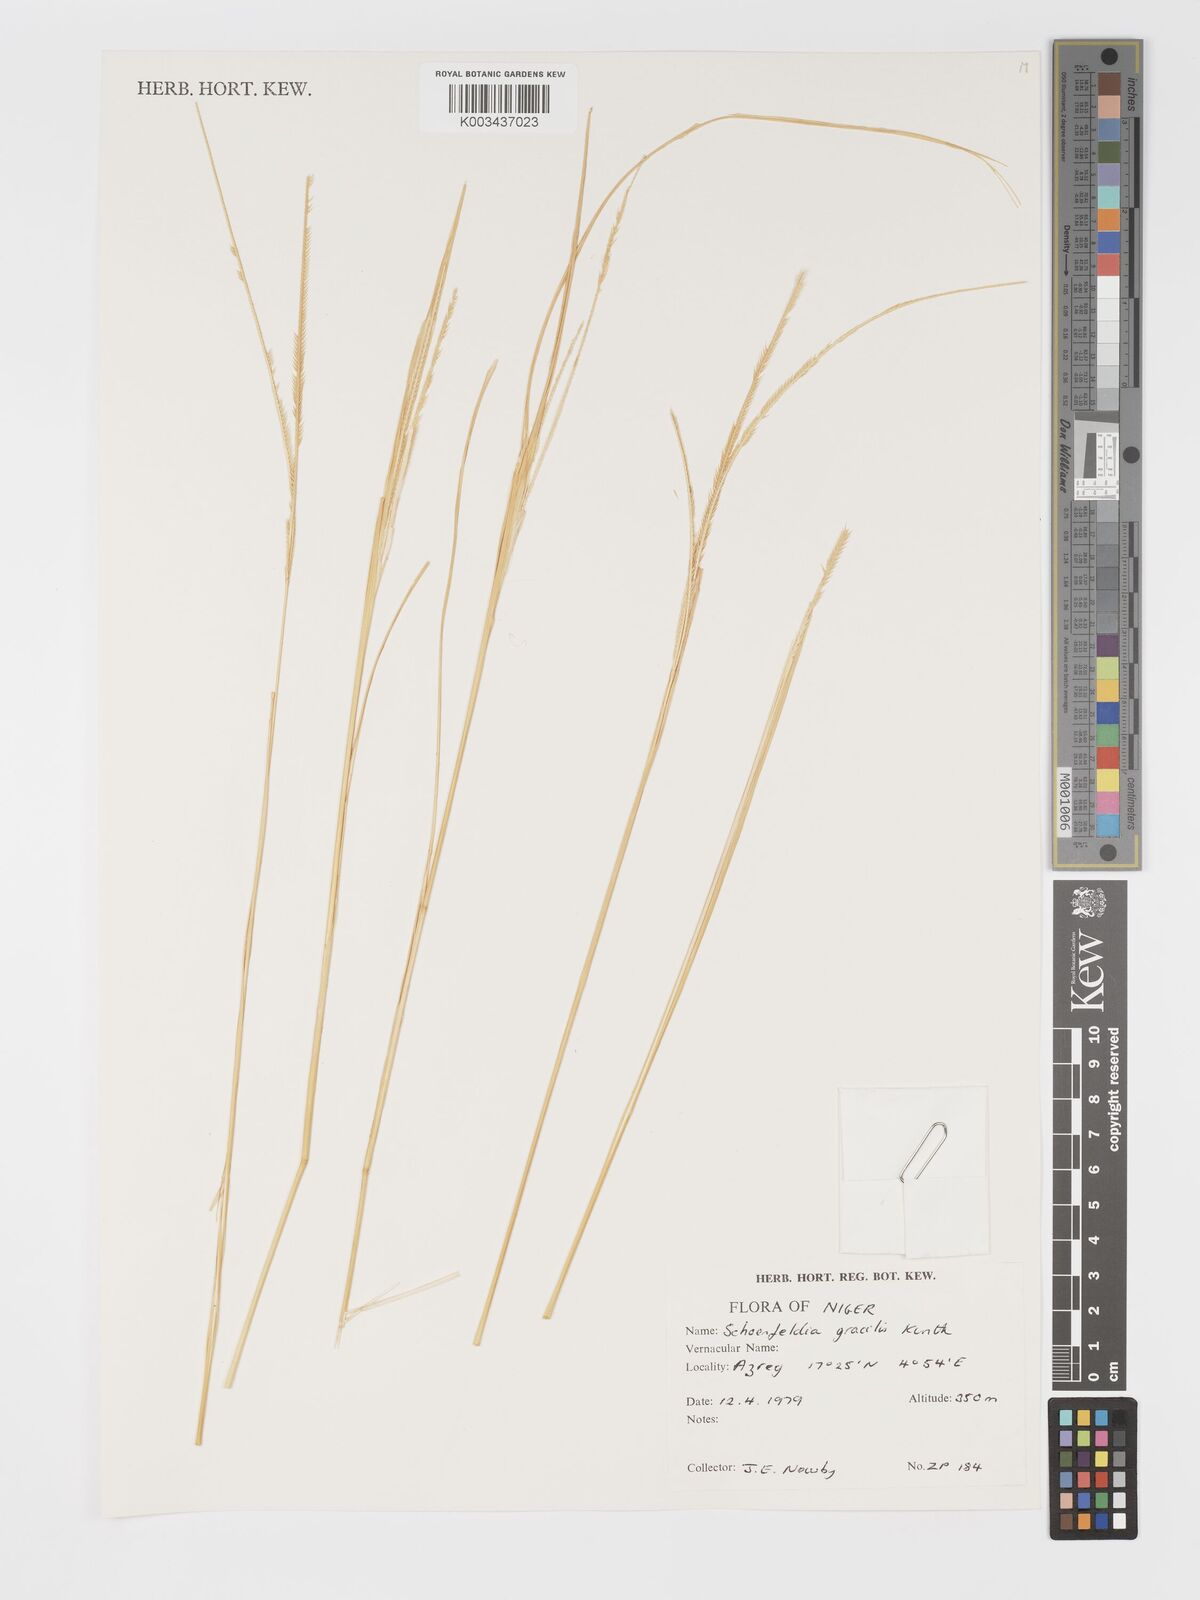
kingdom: Plantae
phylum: Tracheophyta
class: Liliopsida
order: Poales
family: Poaceae
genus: Schoenefeldia
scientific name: Schoenefeldia gracilis
